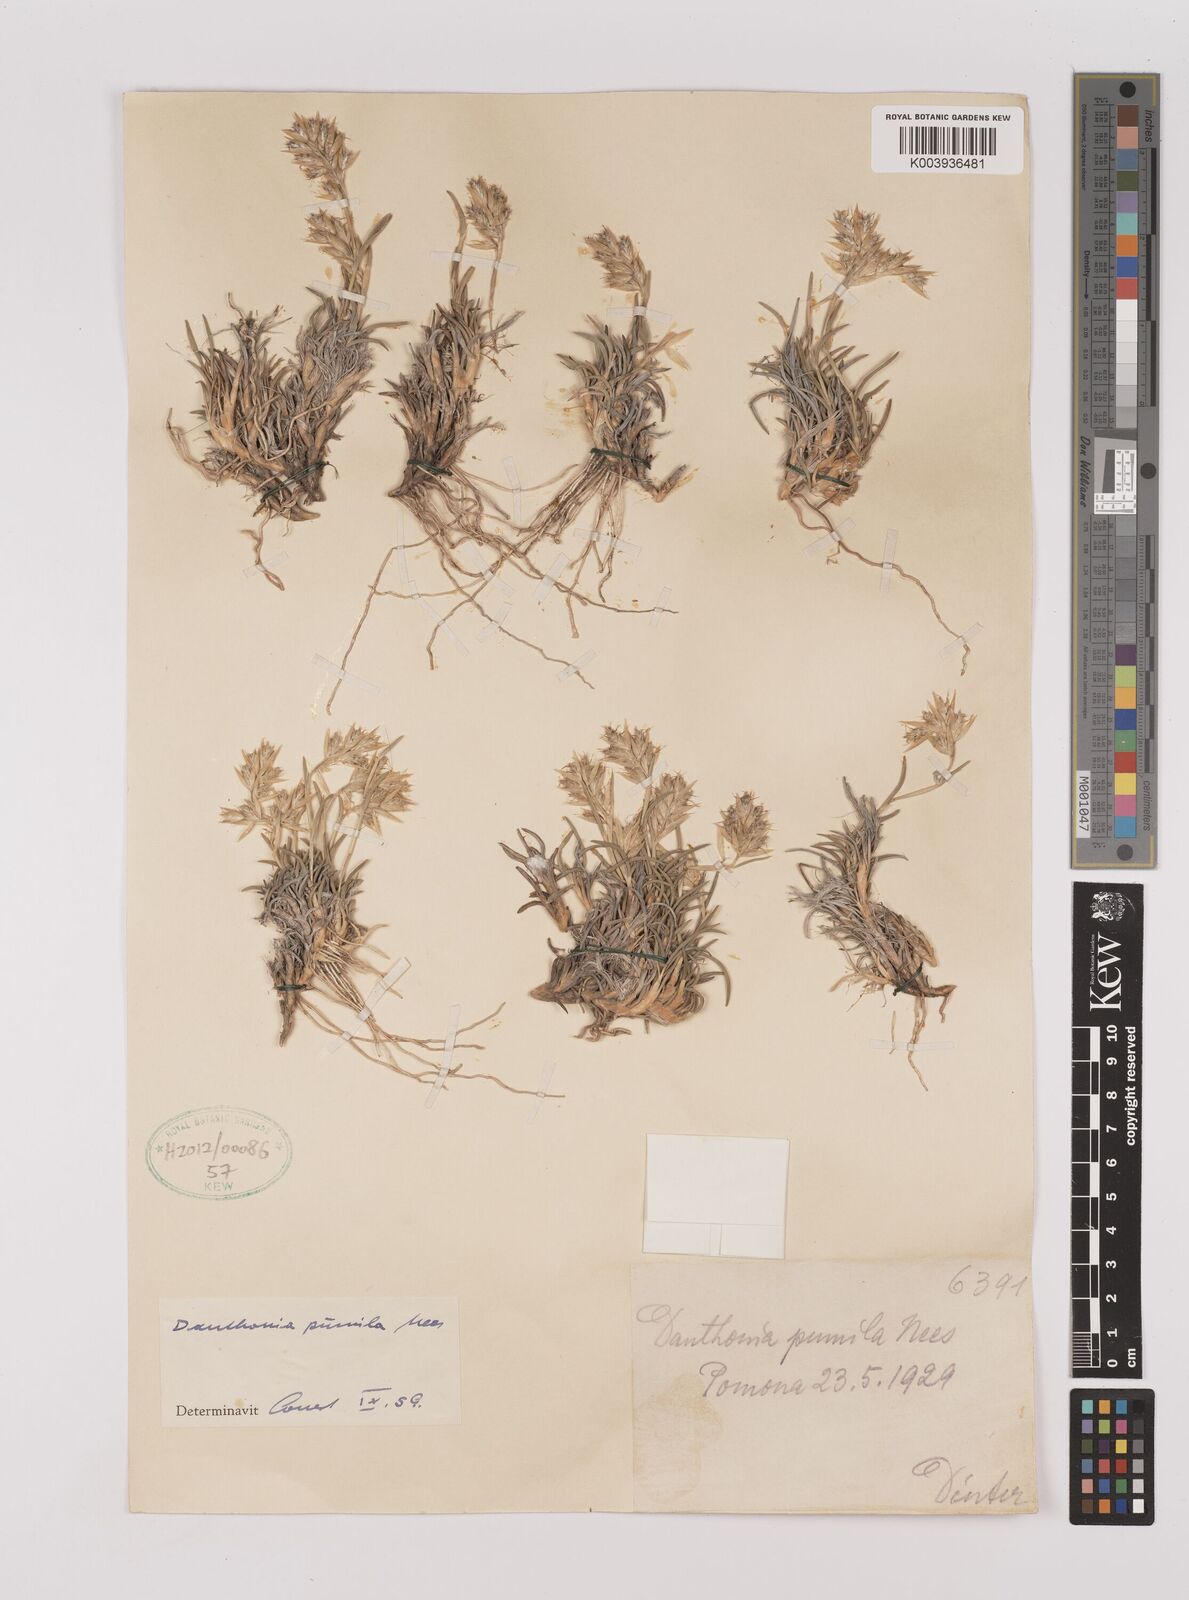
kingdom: Plantae
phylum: Tracheophyta
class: Liliopsida
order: Poales
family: Poaceae
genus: Dregeochloa
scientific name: Dregeochloa pumila
